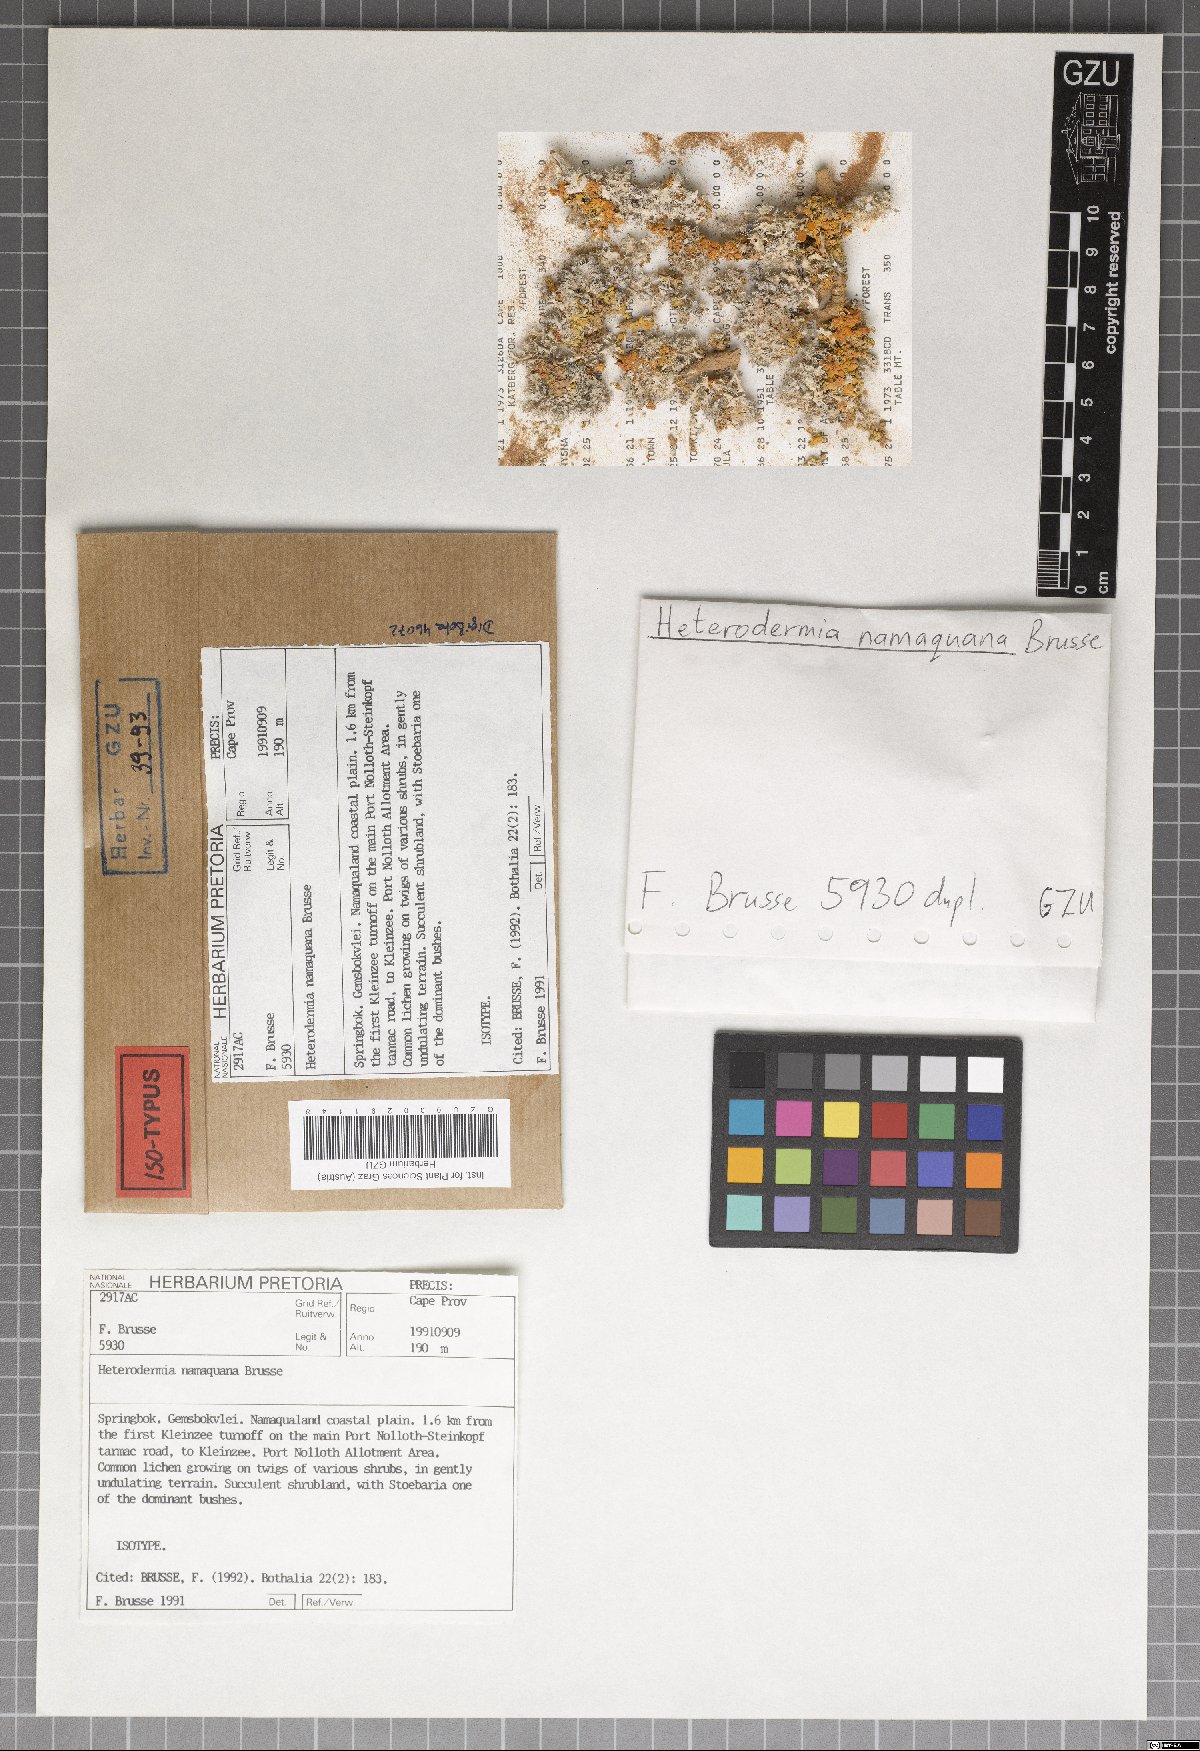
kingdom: Fungi
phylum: Ascomycota
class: Lecanoromycetes
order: Caliciales
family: Physciaceae
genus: Heterodermia
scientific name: Heterodermia namaquana
